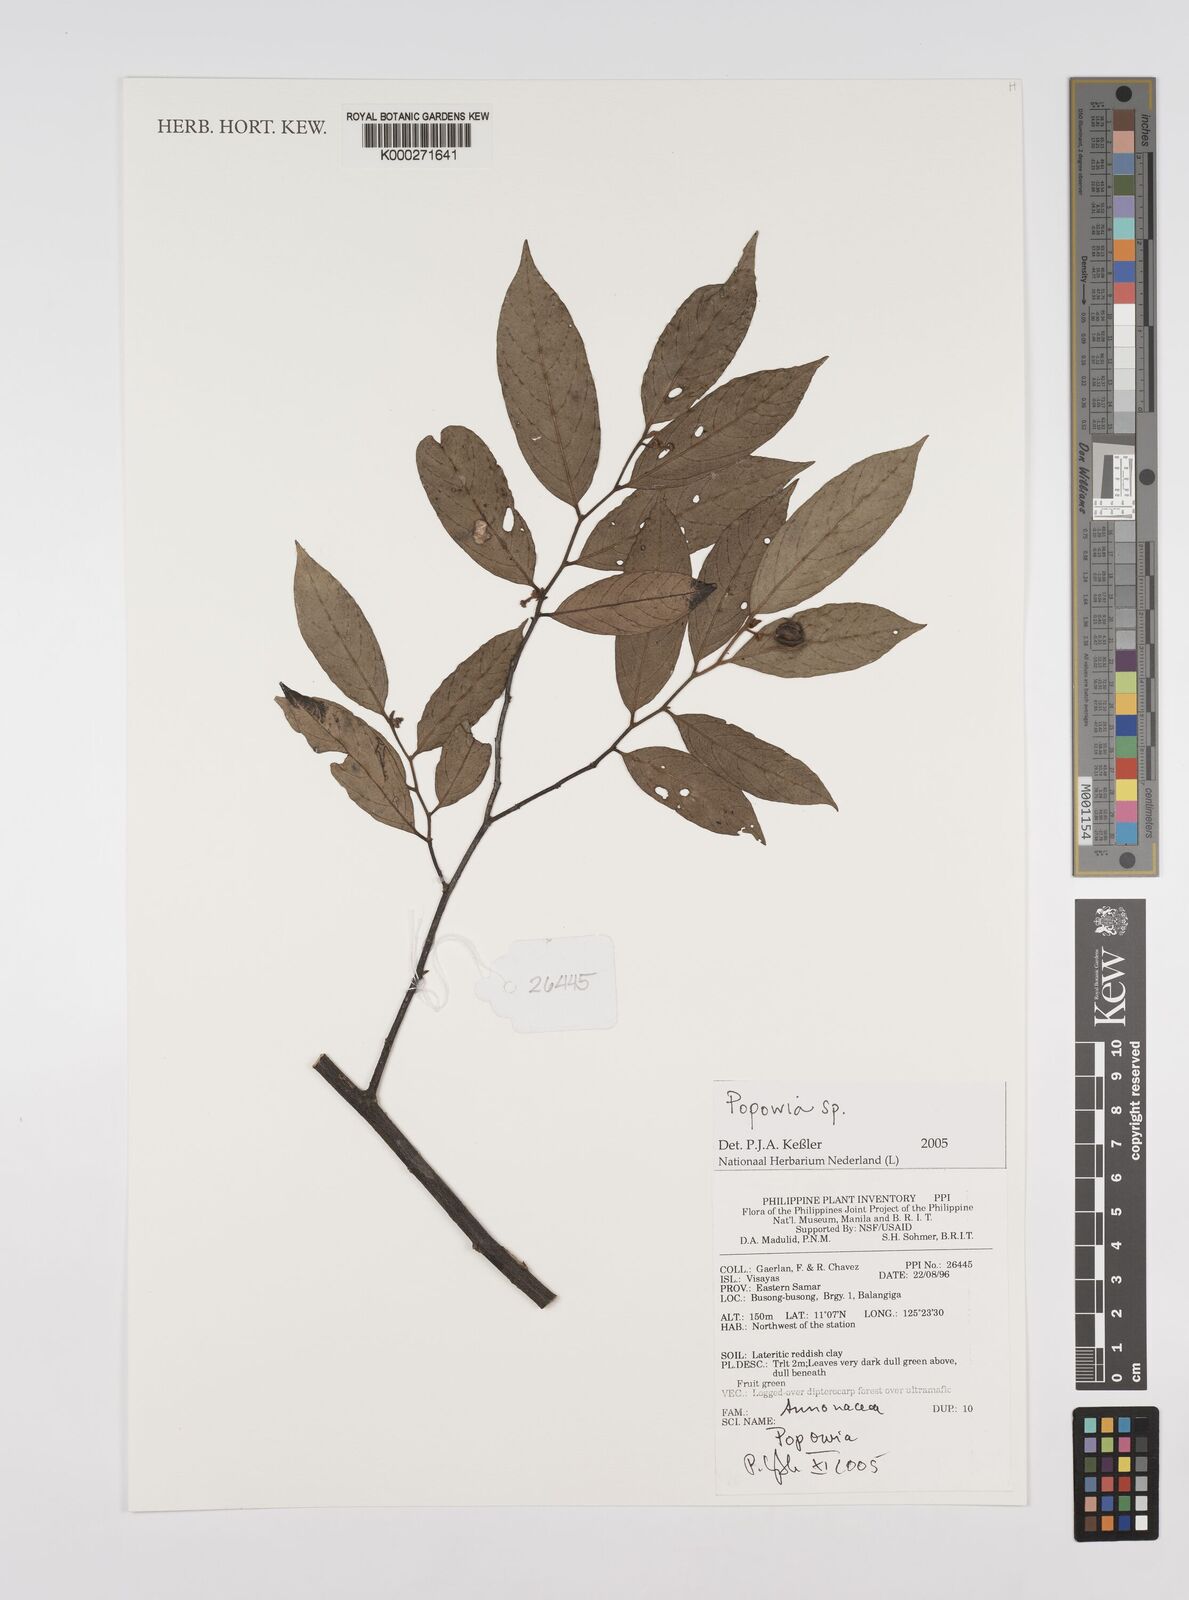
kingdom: Plantae
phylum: Tracheophyta
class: Magnoliopsida
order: Magnoliales
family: Annonaceae
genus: Popowia
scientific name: Popowia
